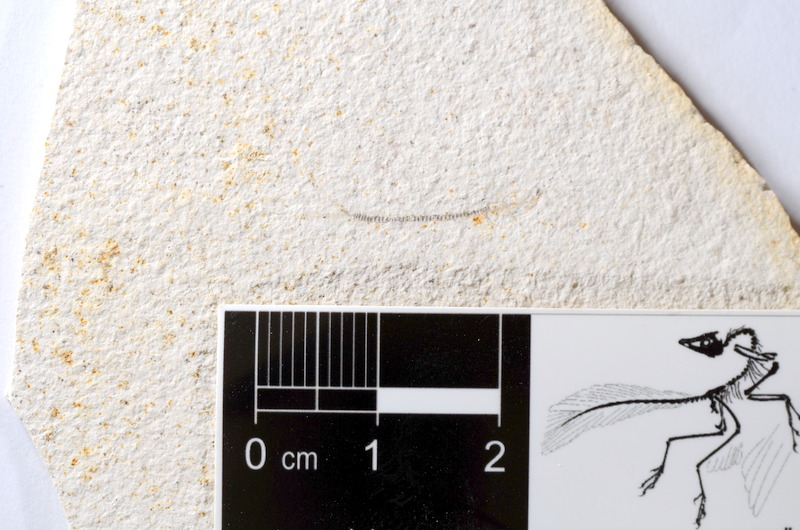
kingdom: Animalia
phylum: Chordata
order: Salmoniformes
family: Orthogonikleithridae
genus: Orthogonikleithrus
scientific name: Orthogonikleithrus hoelli
